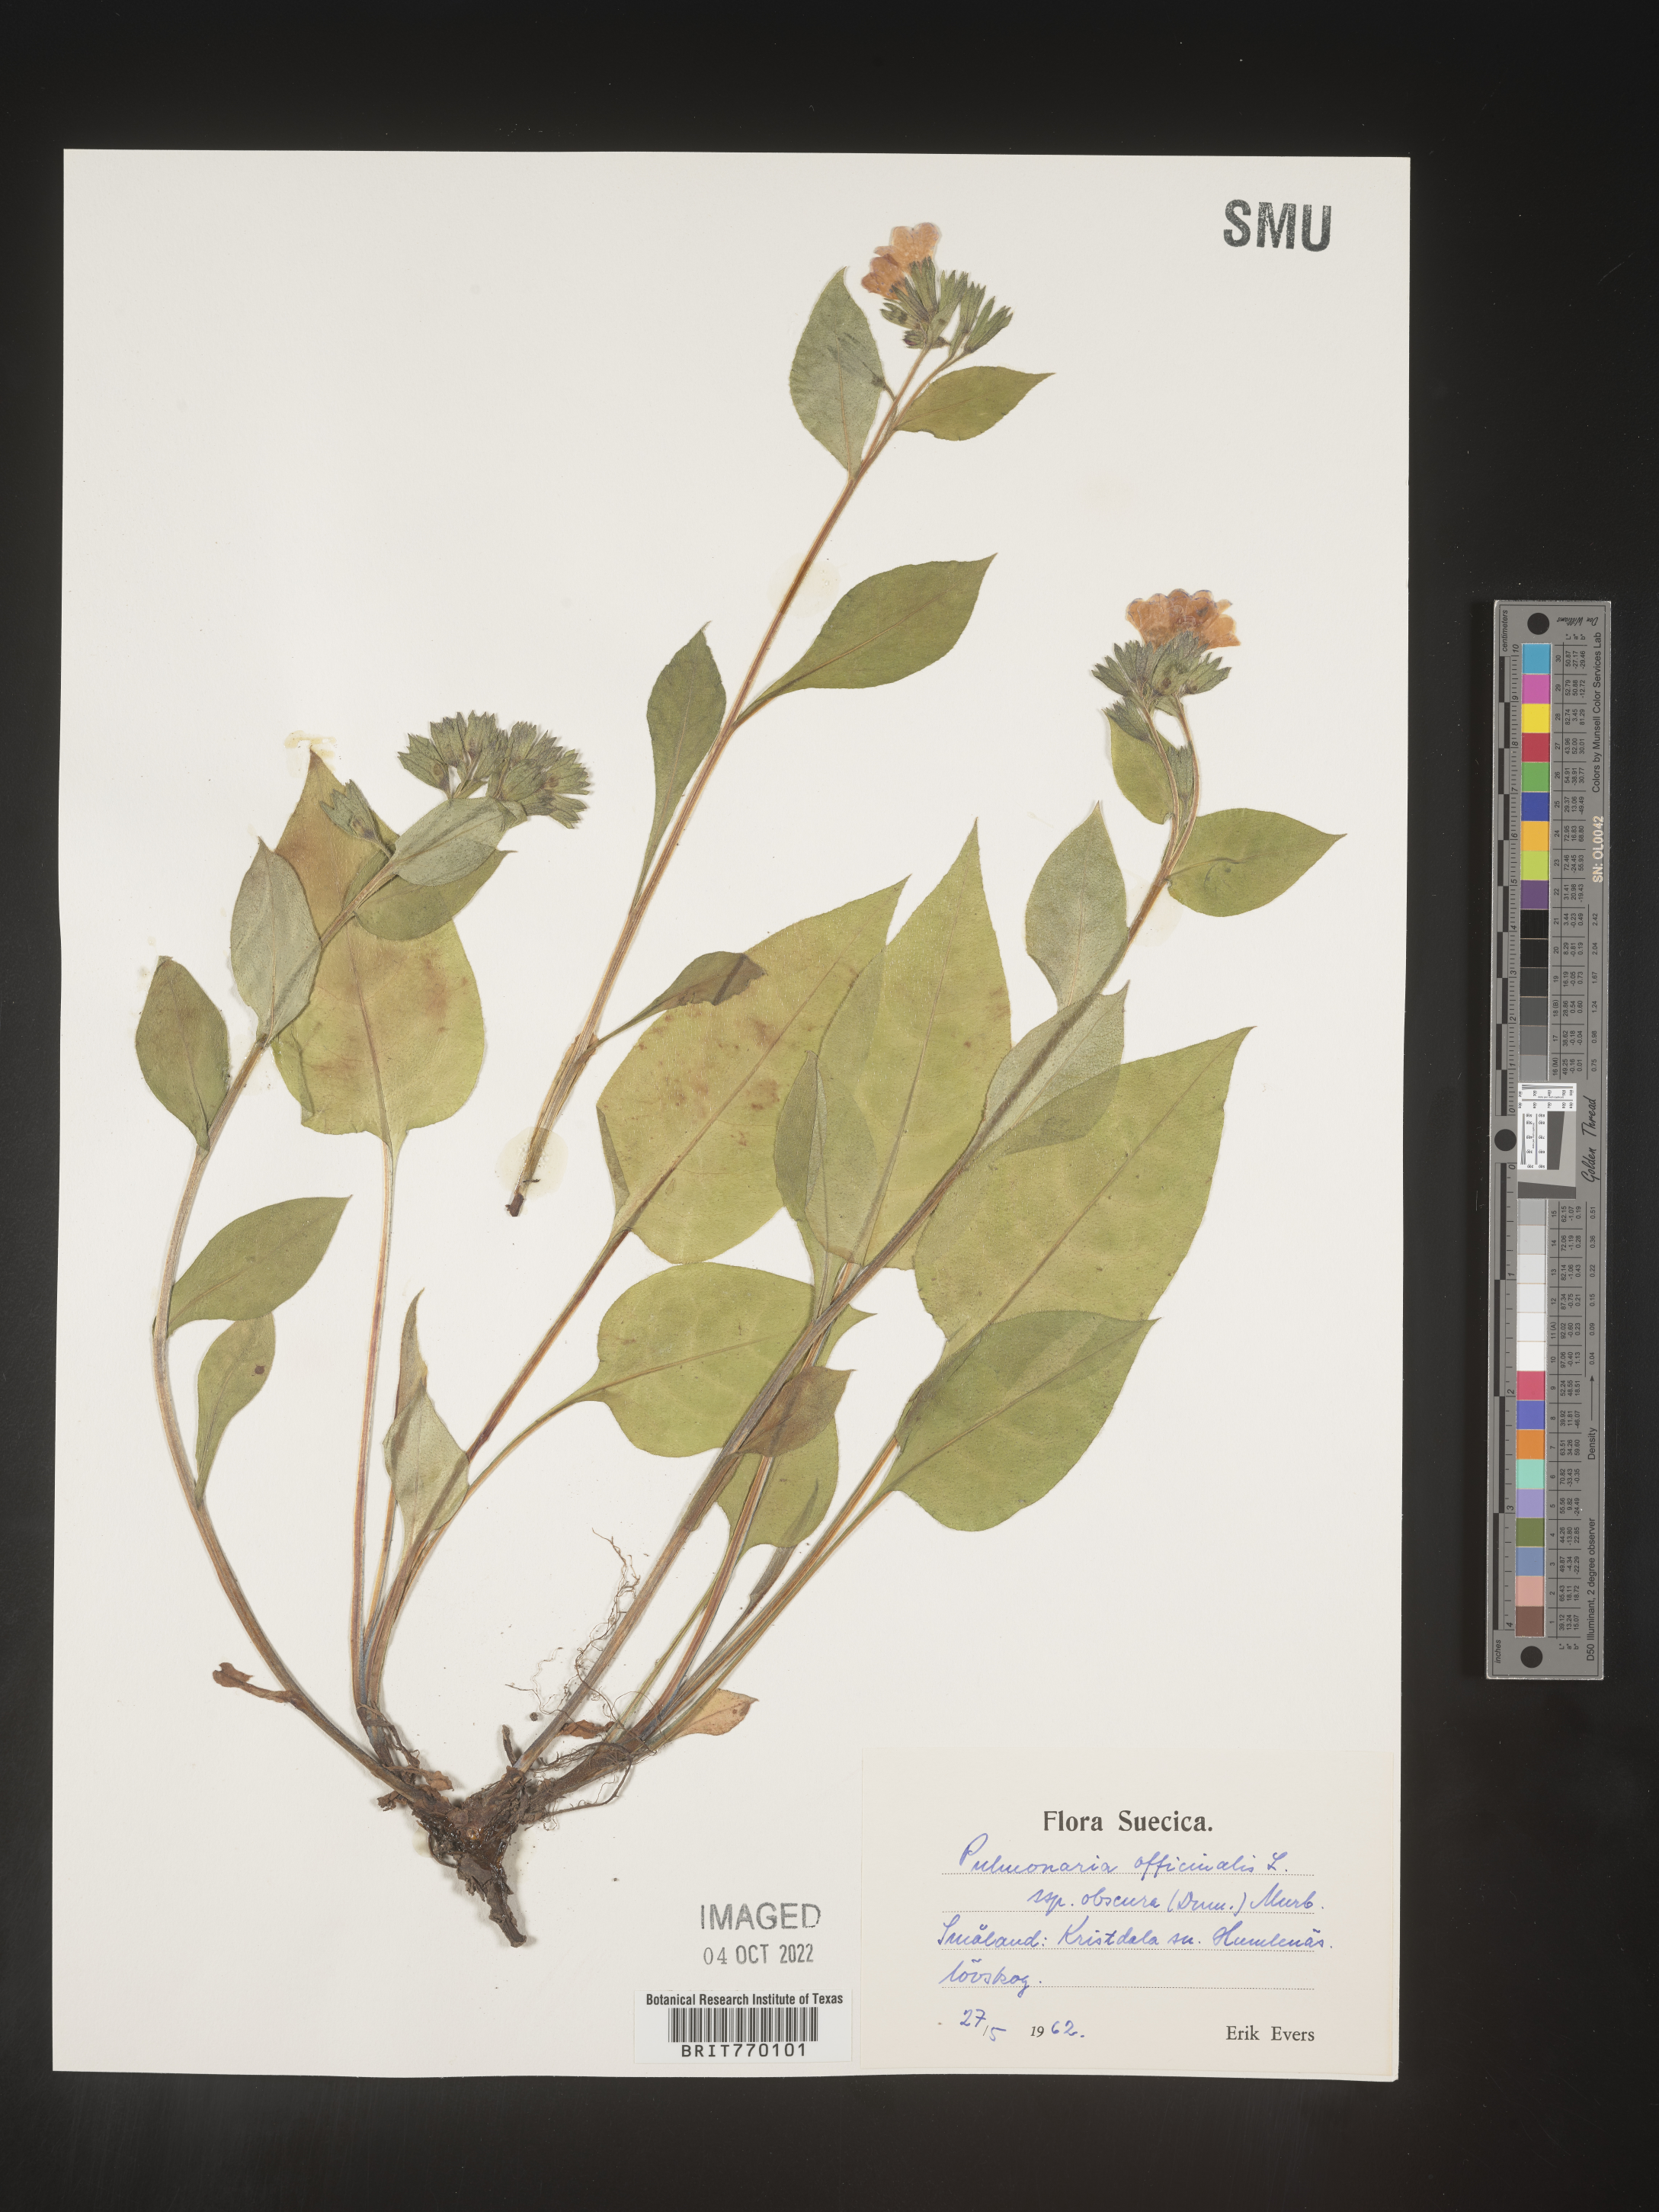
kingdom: Plantae
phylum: Tracheophyta
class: Magnoliopsida
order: Boraginales
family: Boraginaceae
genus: Pulmonaria
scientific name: Pulmonaria
